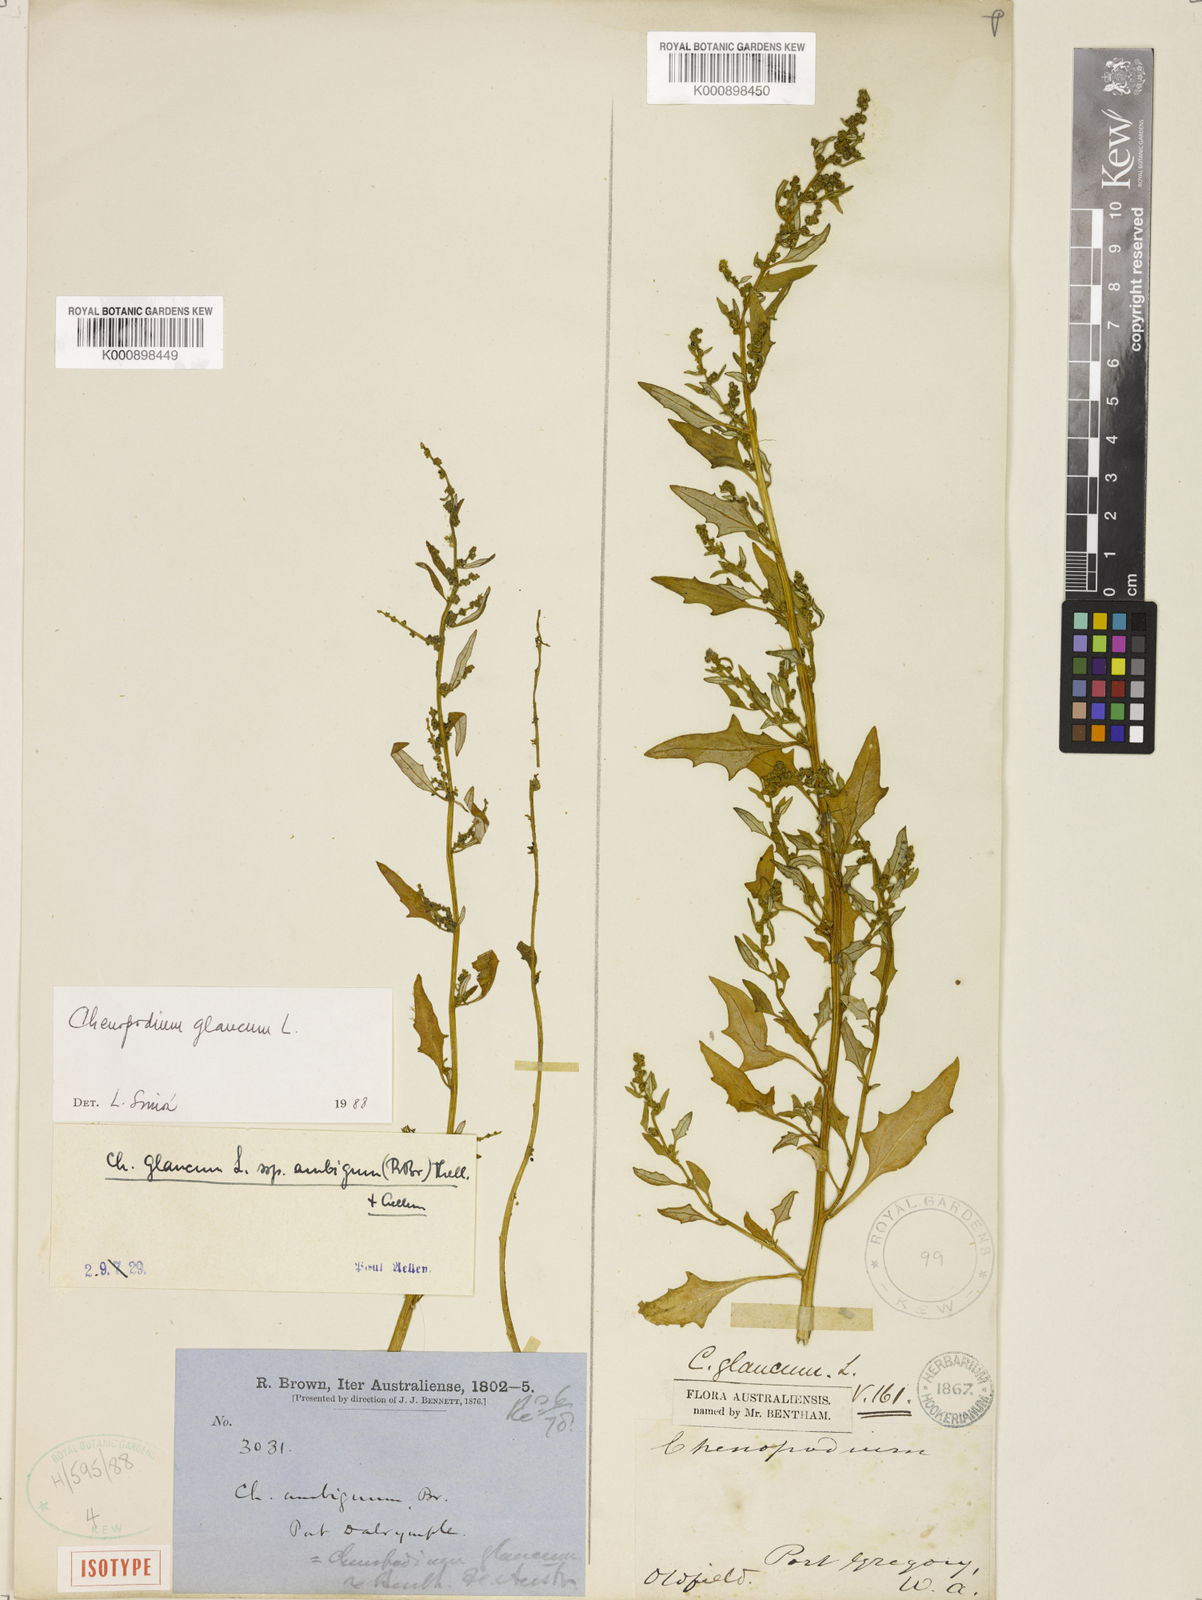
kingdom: Plantae
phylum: Tracheophyta
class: Magnoliopsida
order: Caryophyllales
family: Amaranthaceae
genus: Oxybasis
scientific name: Oxybasis ambigua
